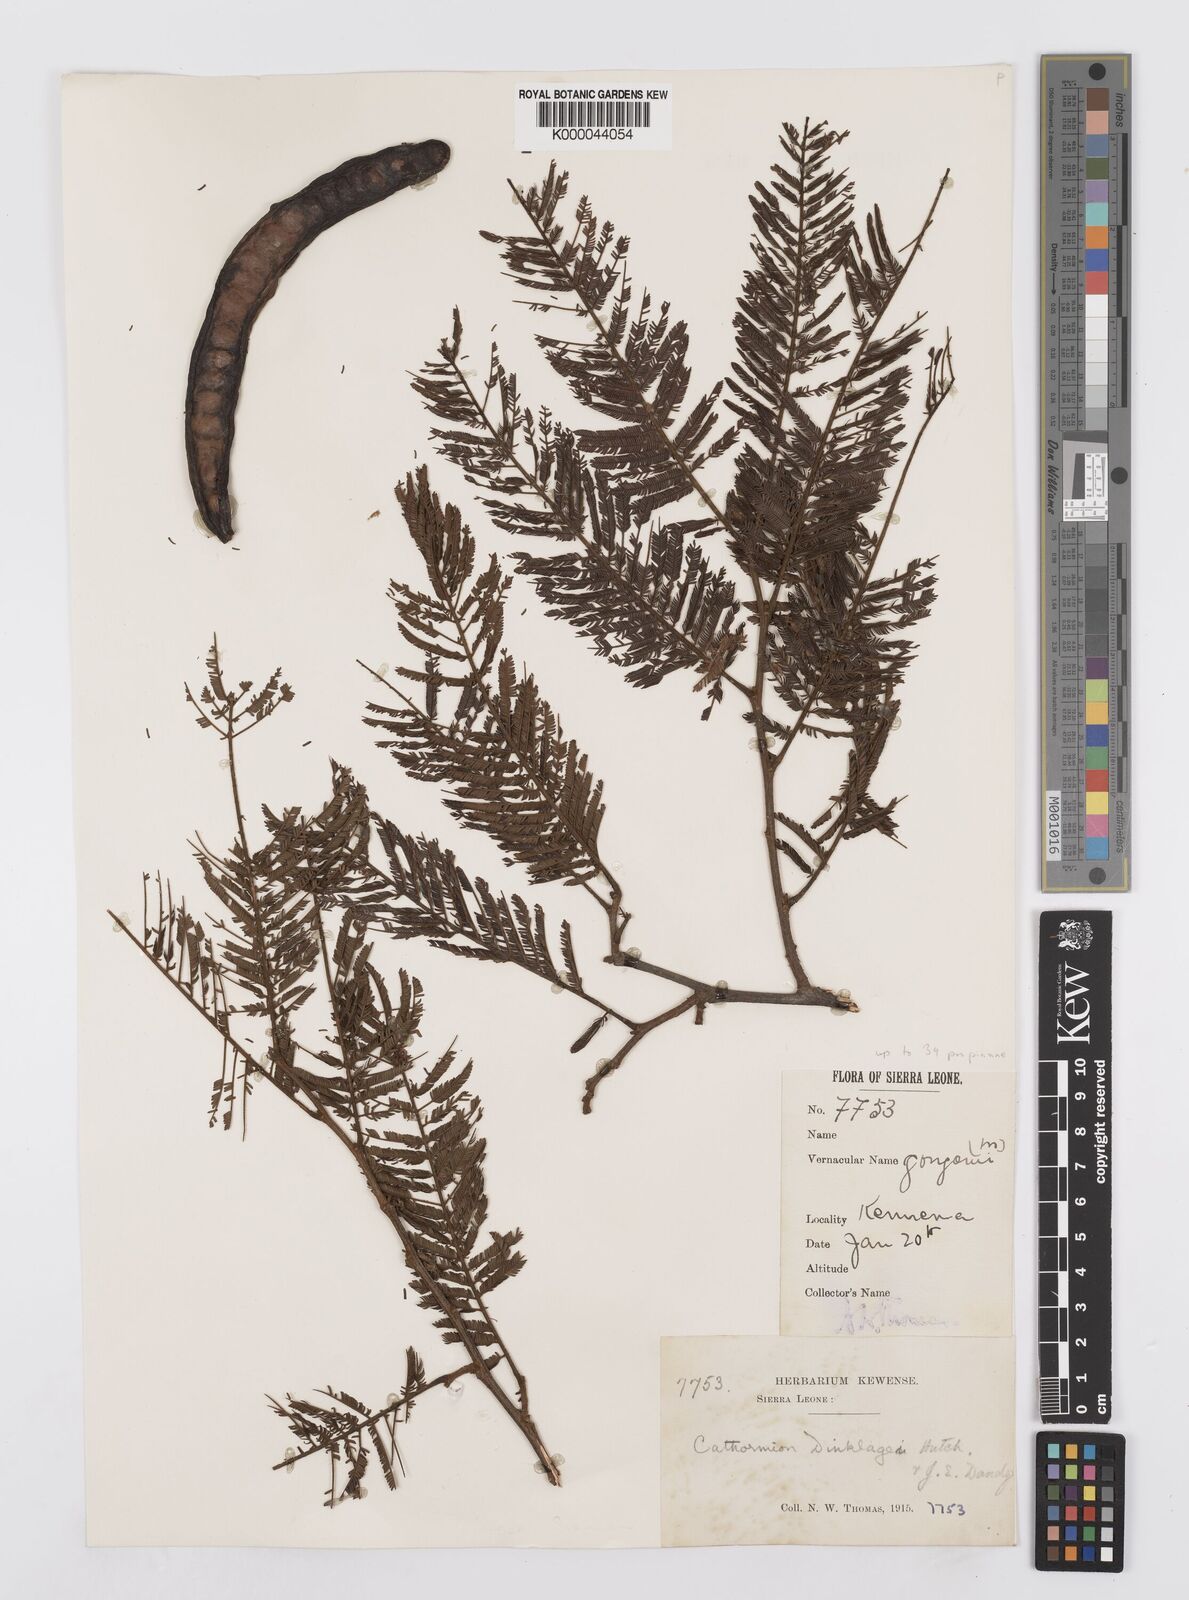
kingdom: Plantae
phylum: Tracheophyta
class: Magnoliopsida
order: Fabales
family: Fabaceae
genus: Albizia
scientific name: Albizia dinklagei
